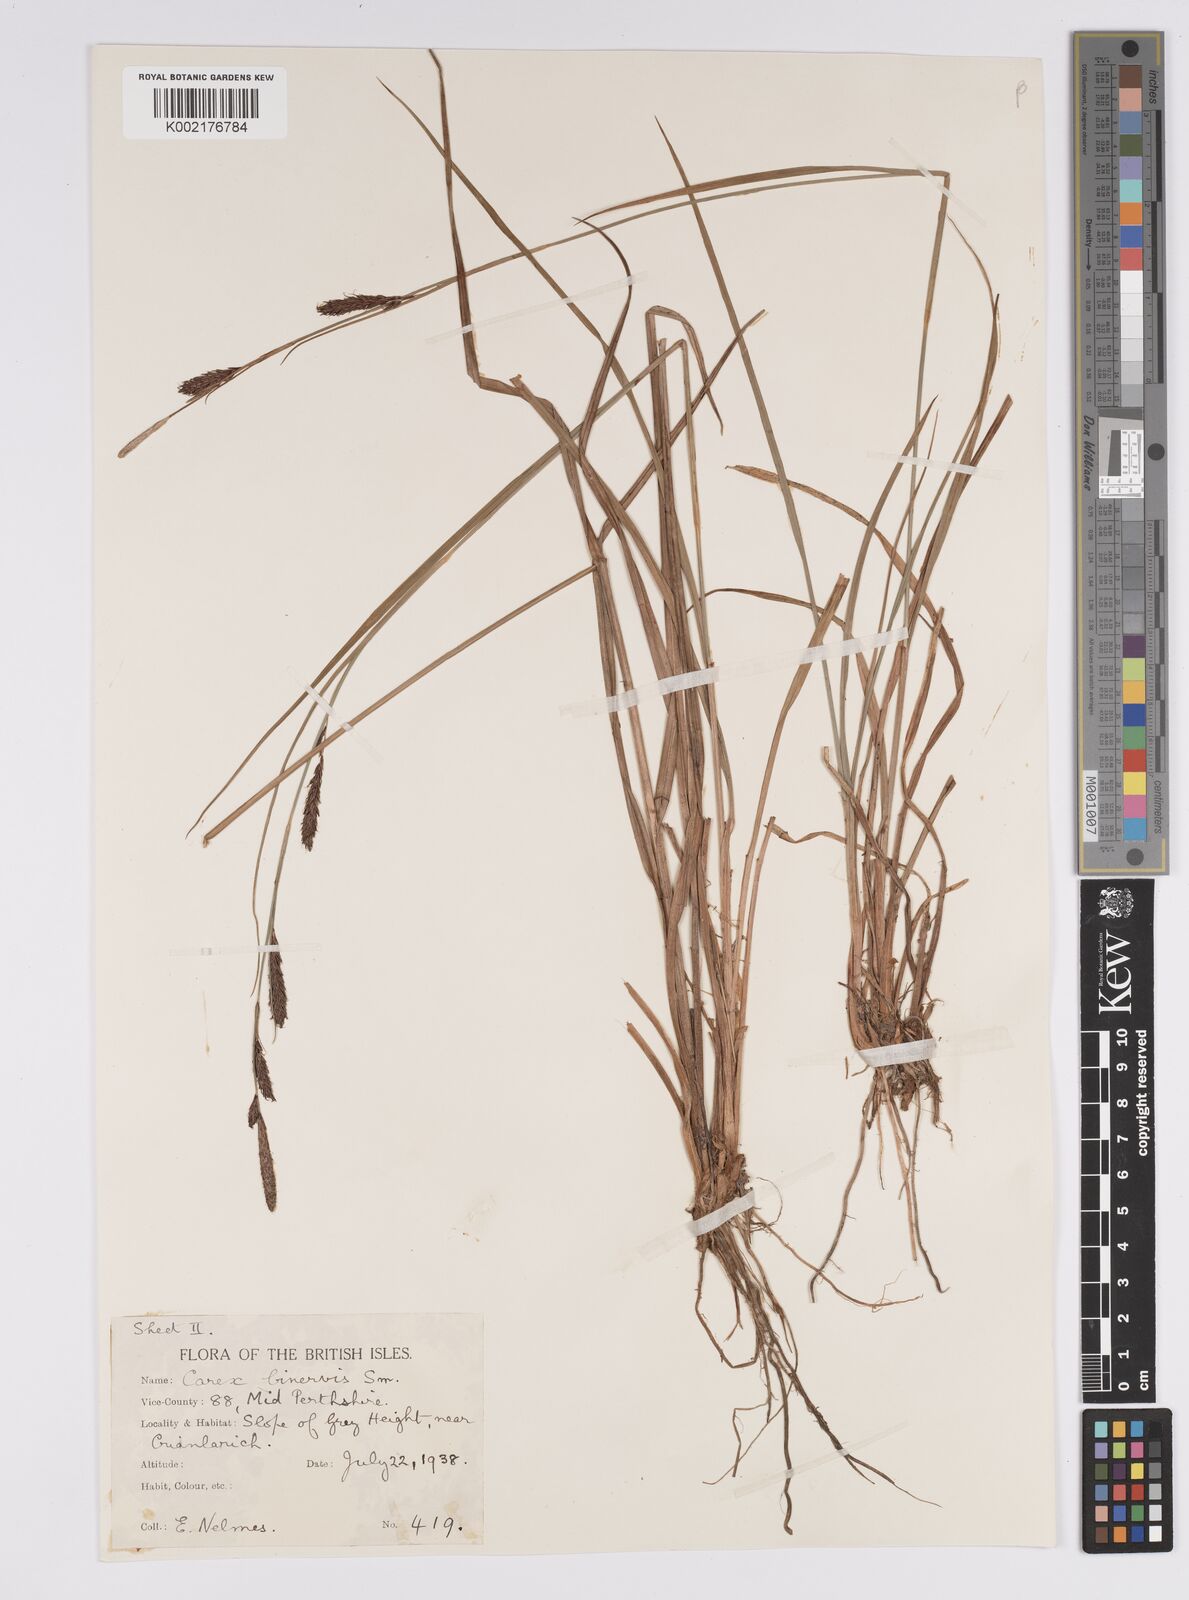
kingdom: Plantae
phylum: Tracheophyta
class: Liliopsida
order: Poales
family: Cyperaceae
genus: Carex
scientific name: Carex binervis
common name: Green-ribbed sedge
